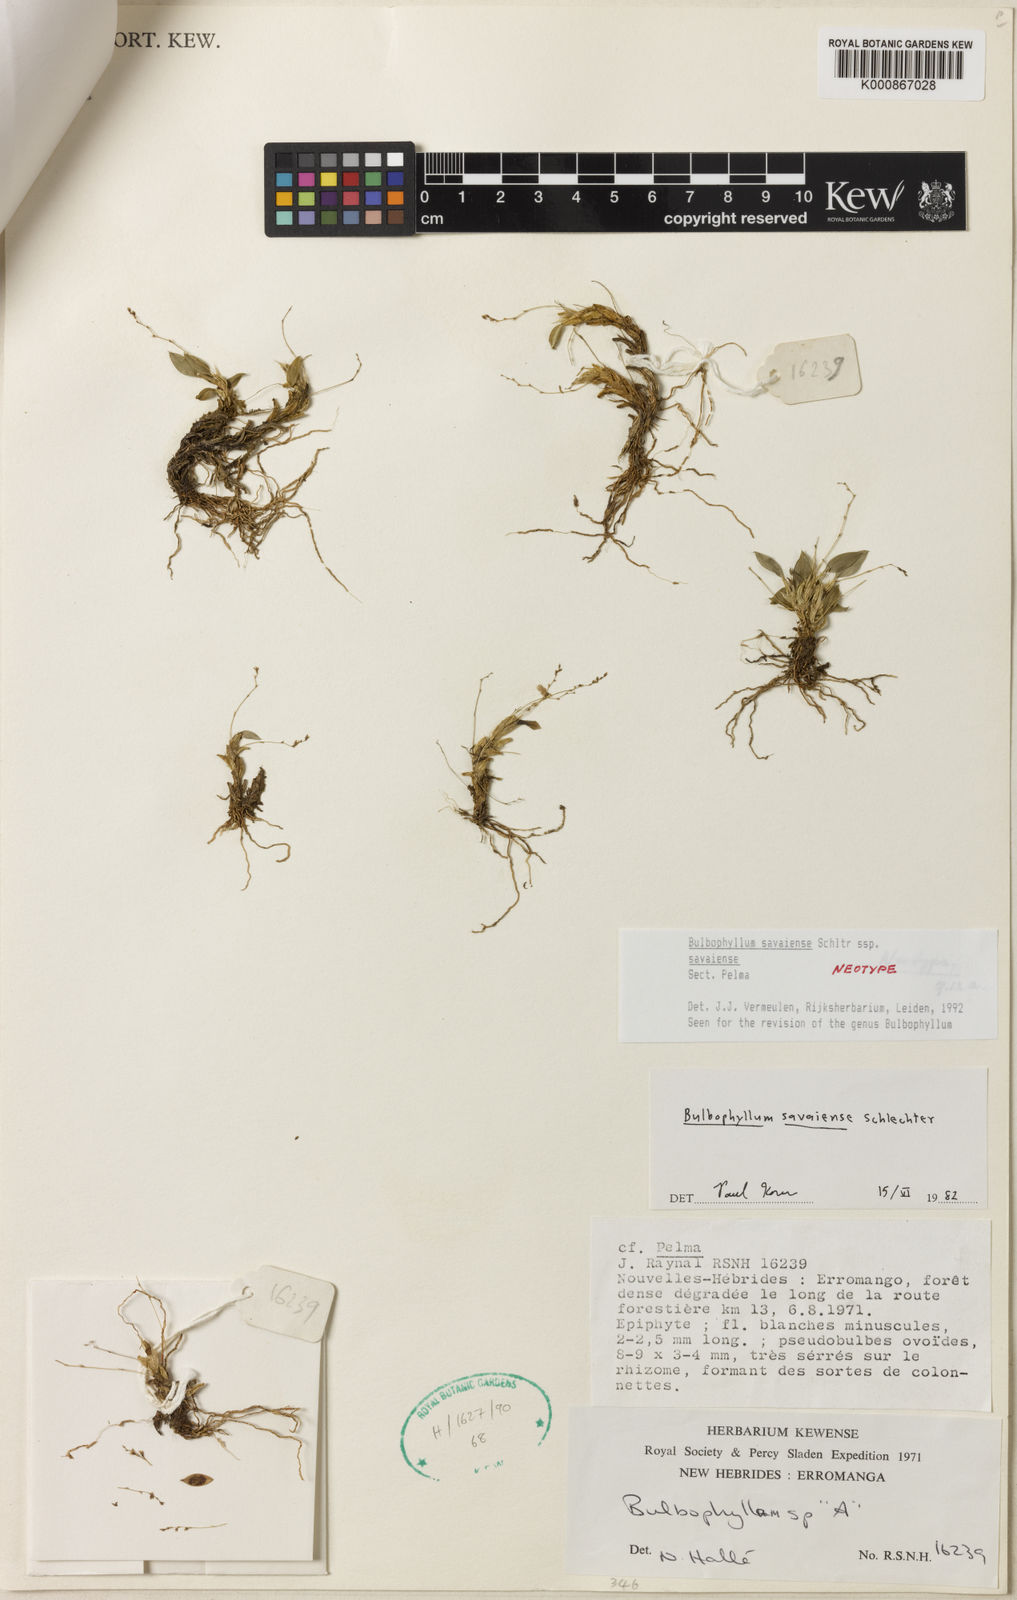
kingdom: Plantae
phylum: Tracheophyta
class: Liliopsida
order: Asparagales
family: Orchidaceae
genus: Bulbophyllum
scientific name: Bulbophyllum
